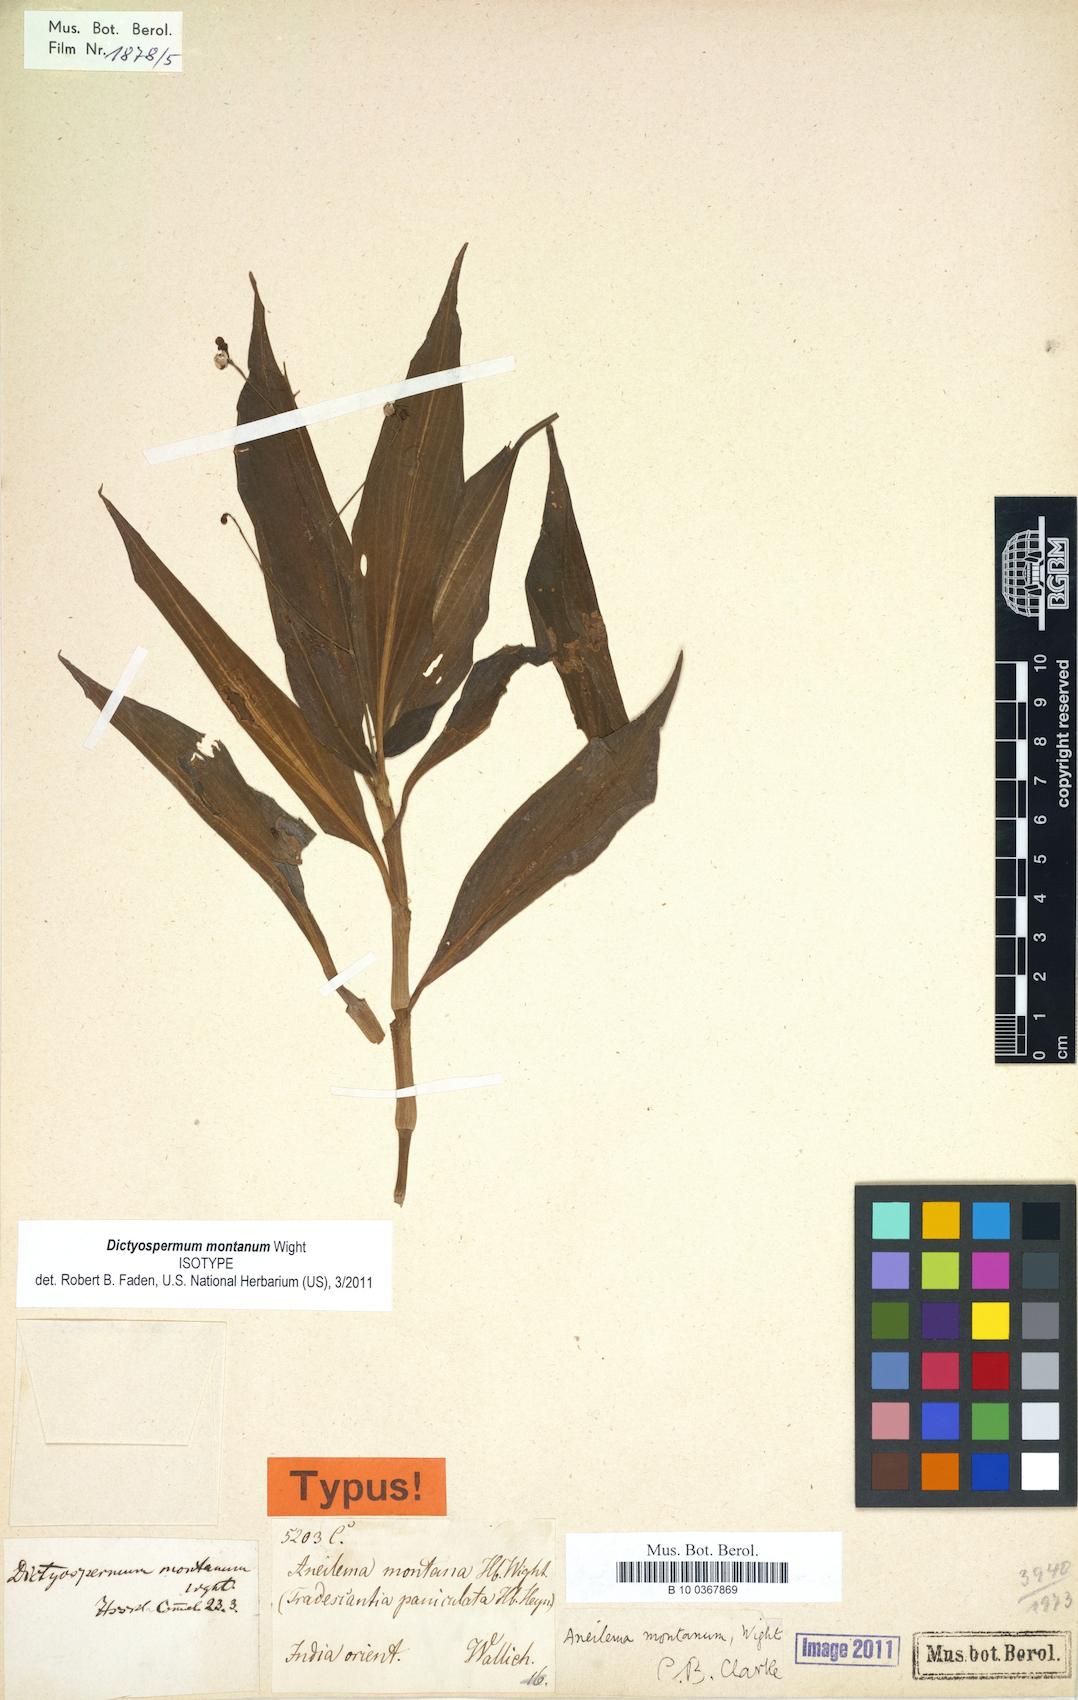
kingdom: Plantae
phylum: Tracheophyta
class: Liliopsida
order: Commelinales
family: Commelinaceae
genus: Aneilema
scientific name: Aneilema montanum
